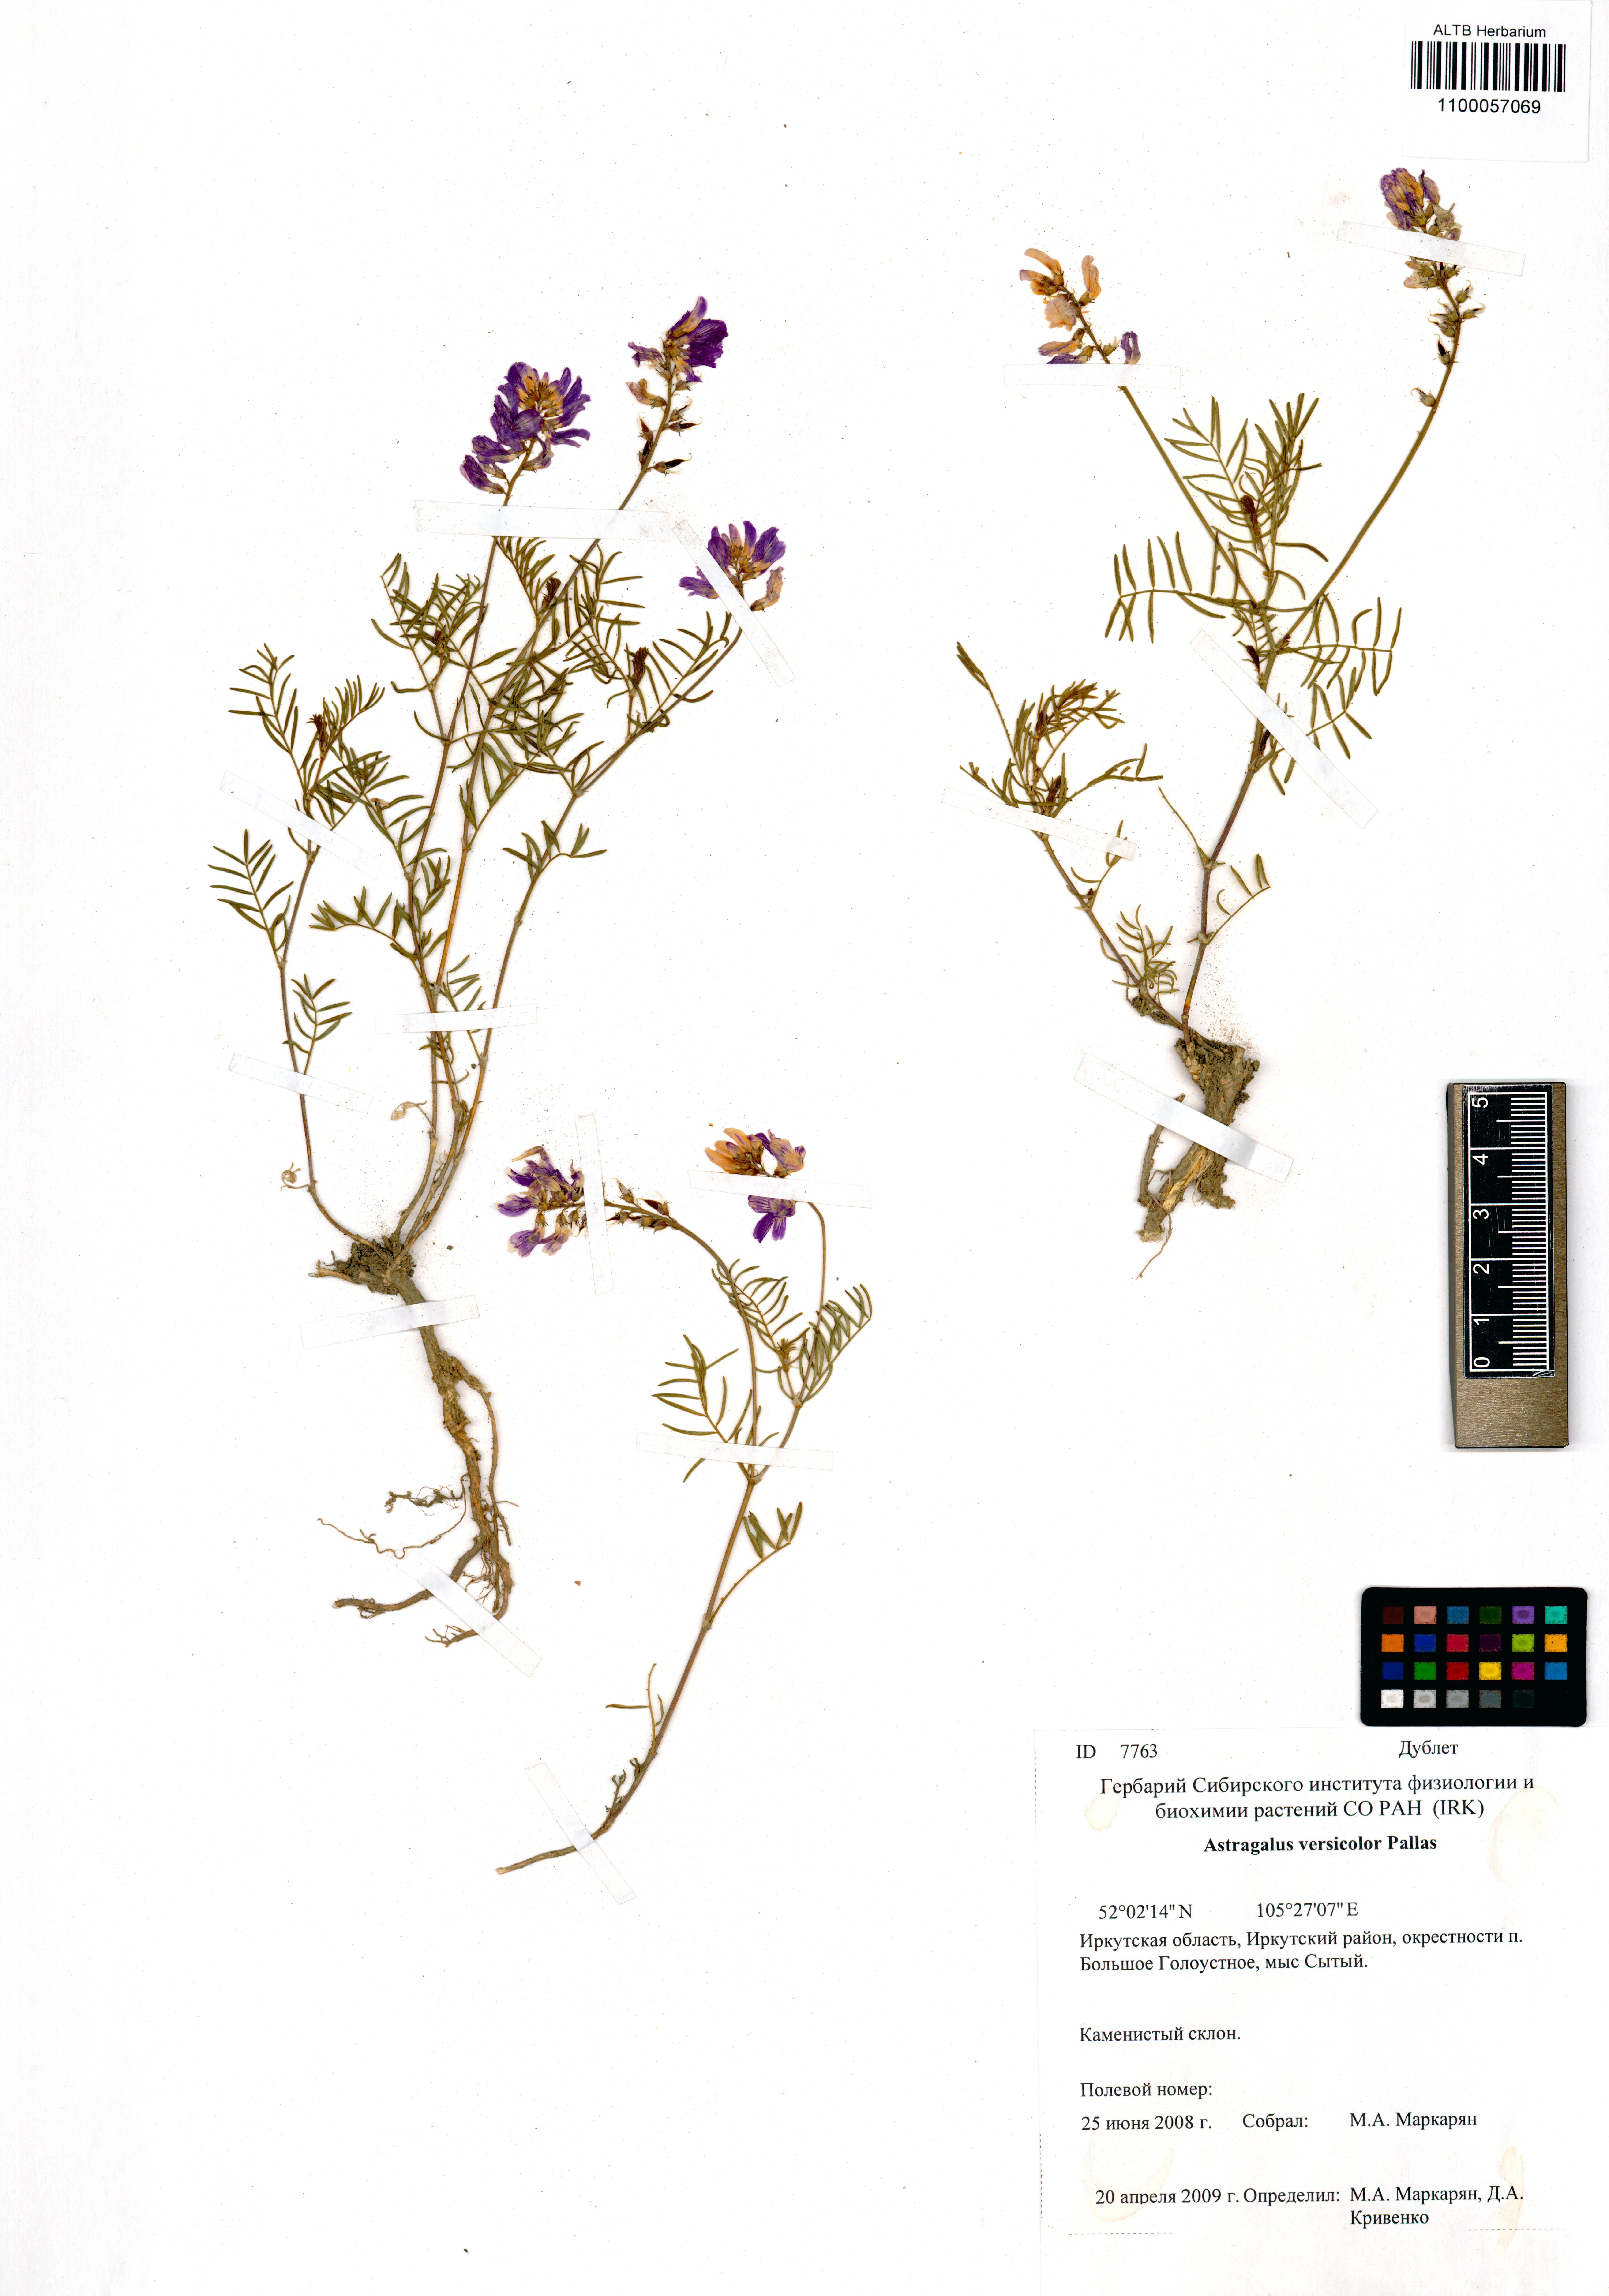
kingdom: Plantae
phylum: Tracheophyta
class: Magnoliopsida
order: Fabales
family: Fabaceae
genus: Astragalus
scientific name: Astragalus versicolor
